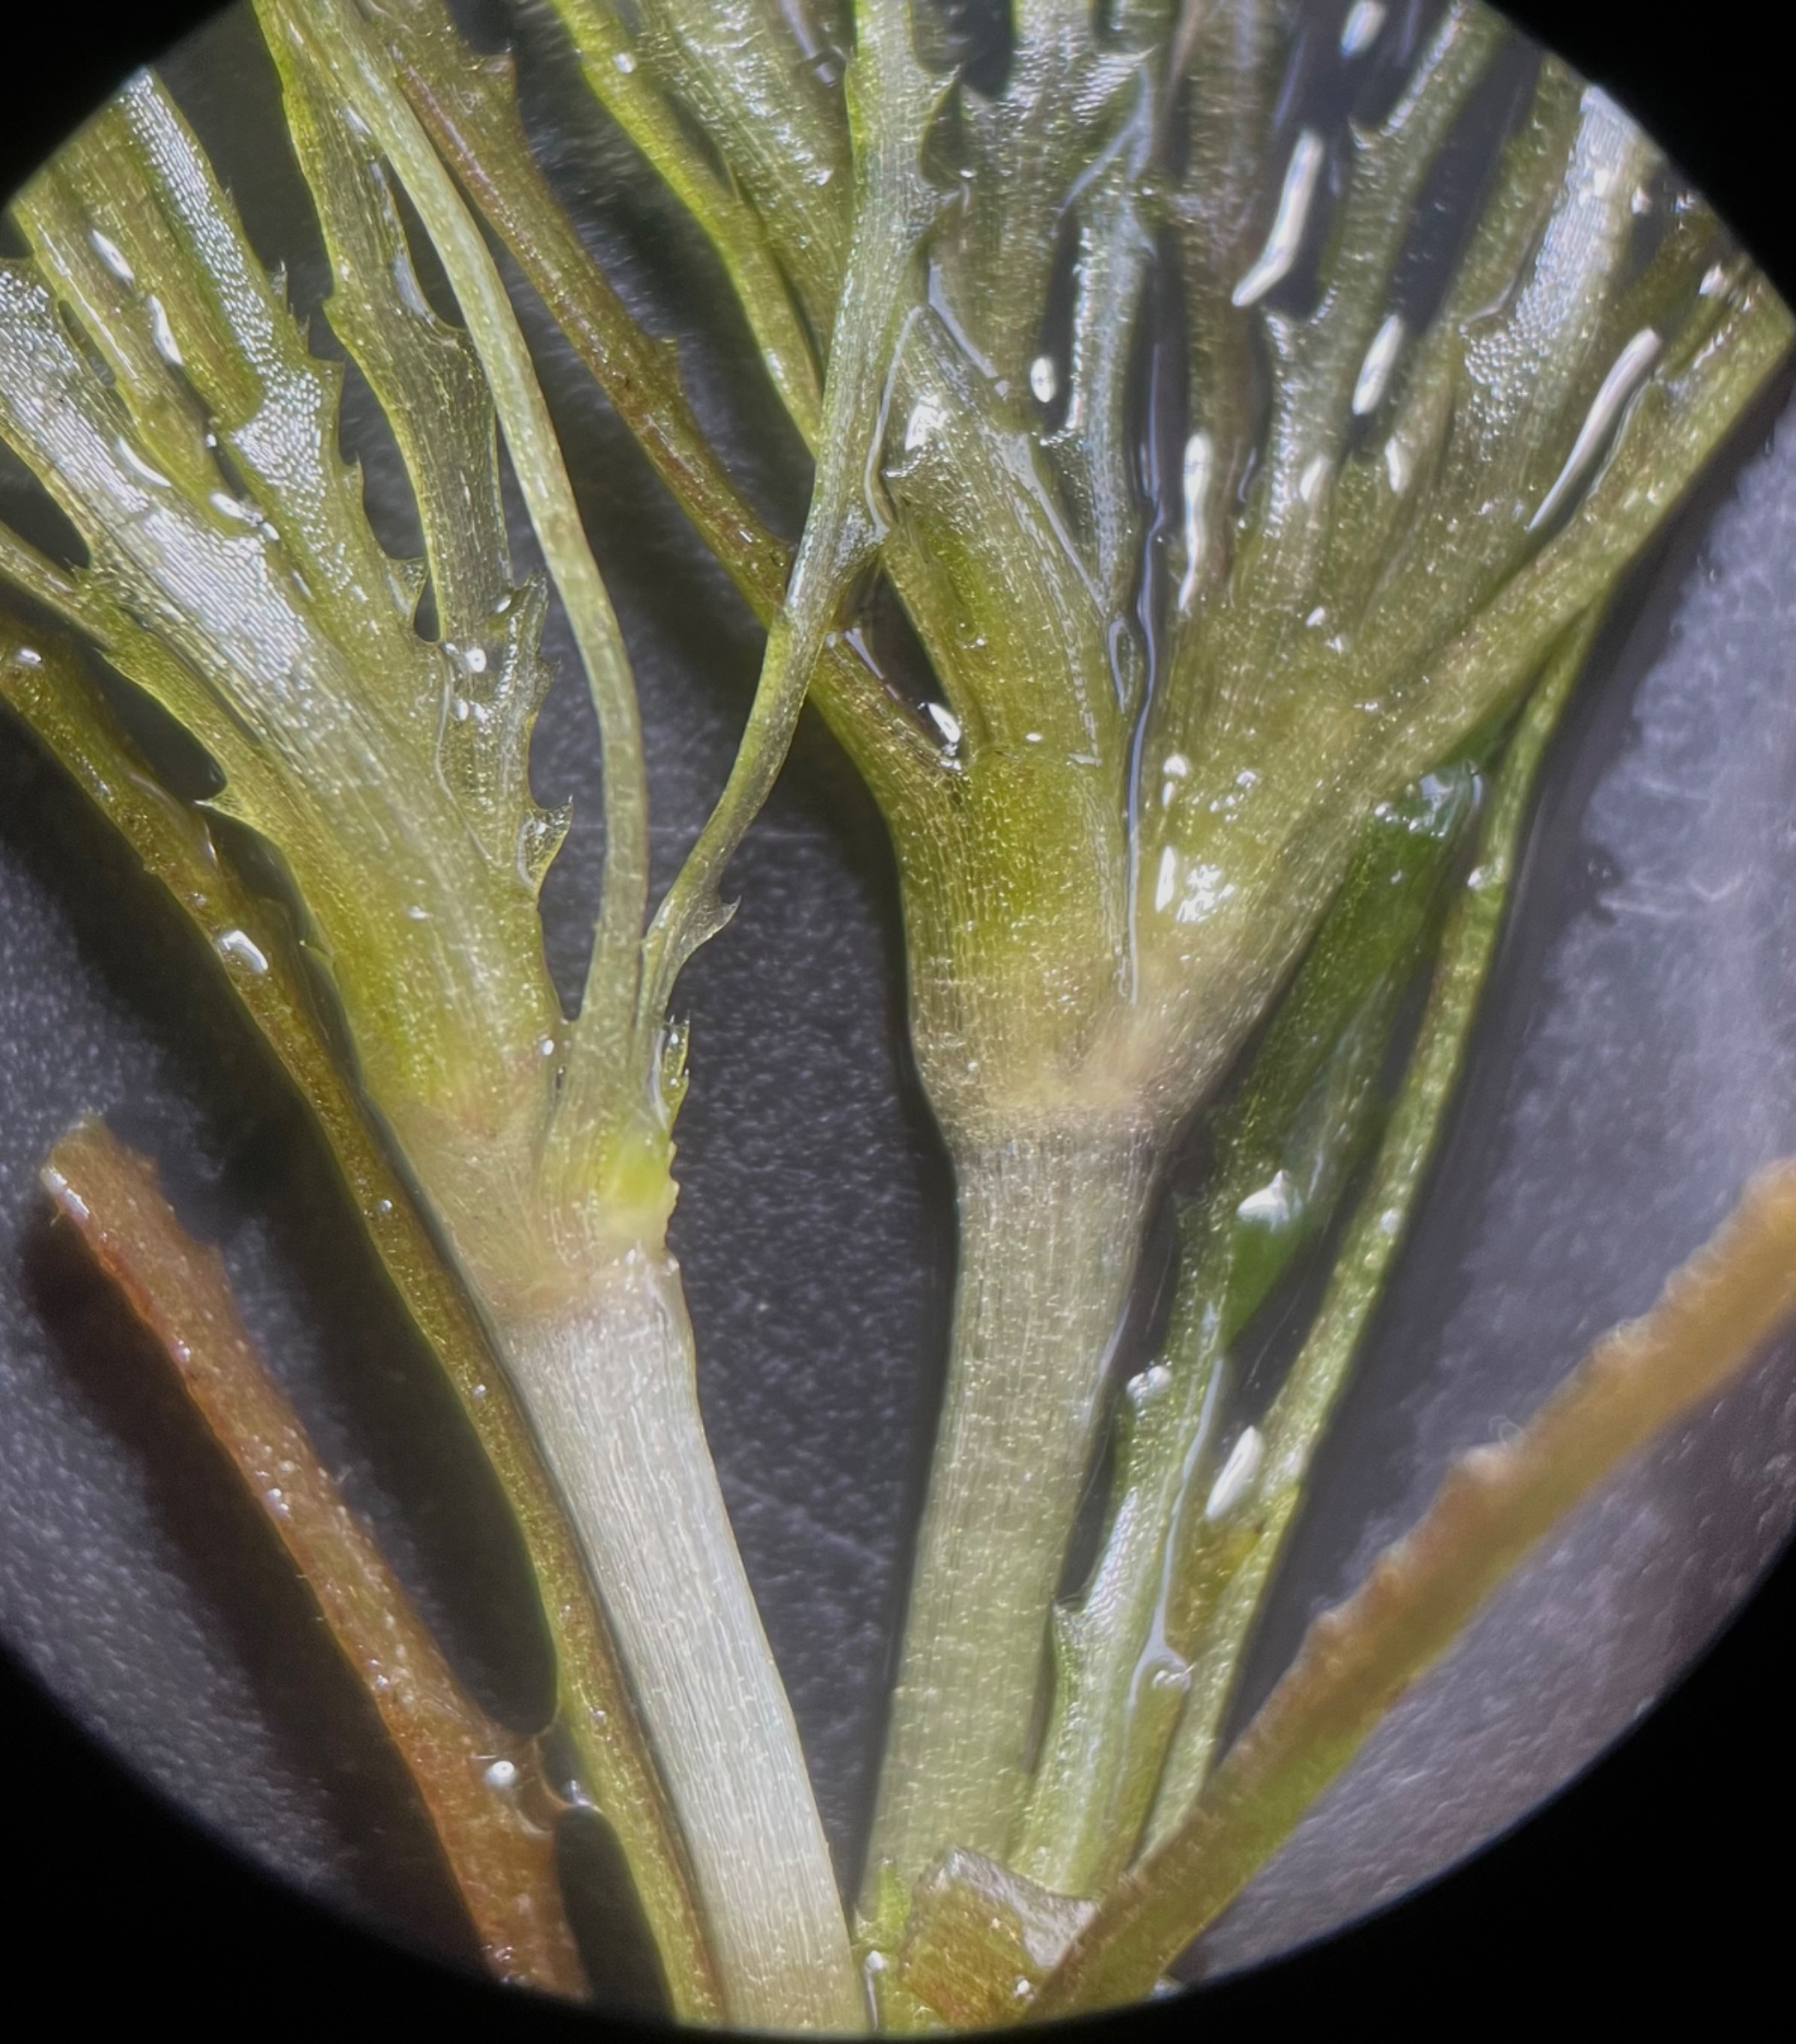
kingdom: Plantae
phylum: Tracheophyta
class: Liliopsida
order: Alismatales
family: Hydrocharitaceae
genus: Najas
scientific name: Najas marina
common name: Stor najade
